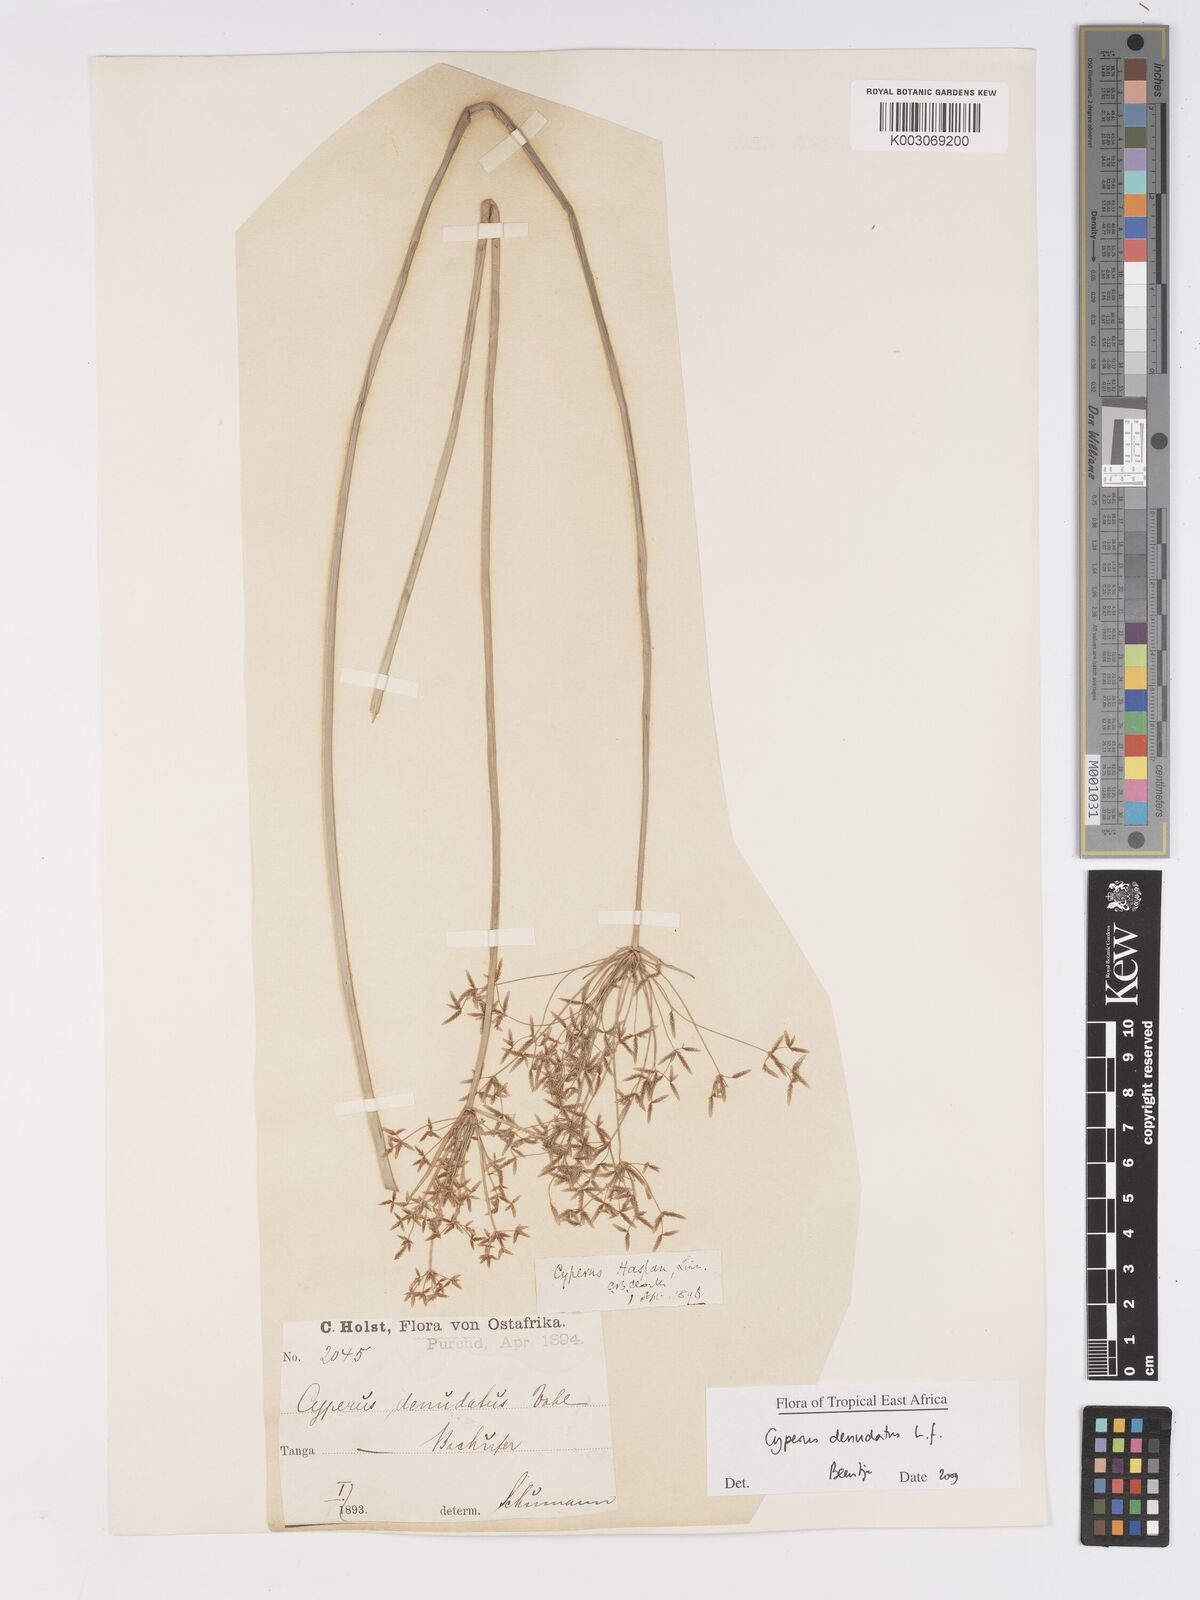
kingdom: Plantae
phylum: Tracheophyta
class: Liliopsida
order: Poales
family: Cyperaceae
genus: Cyperus
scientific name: Cyperus denudatus
